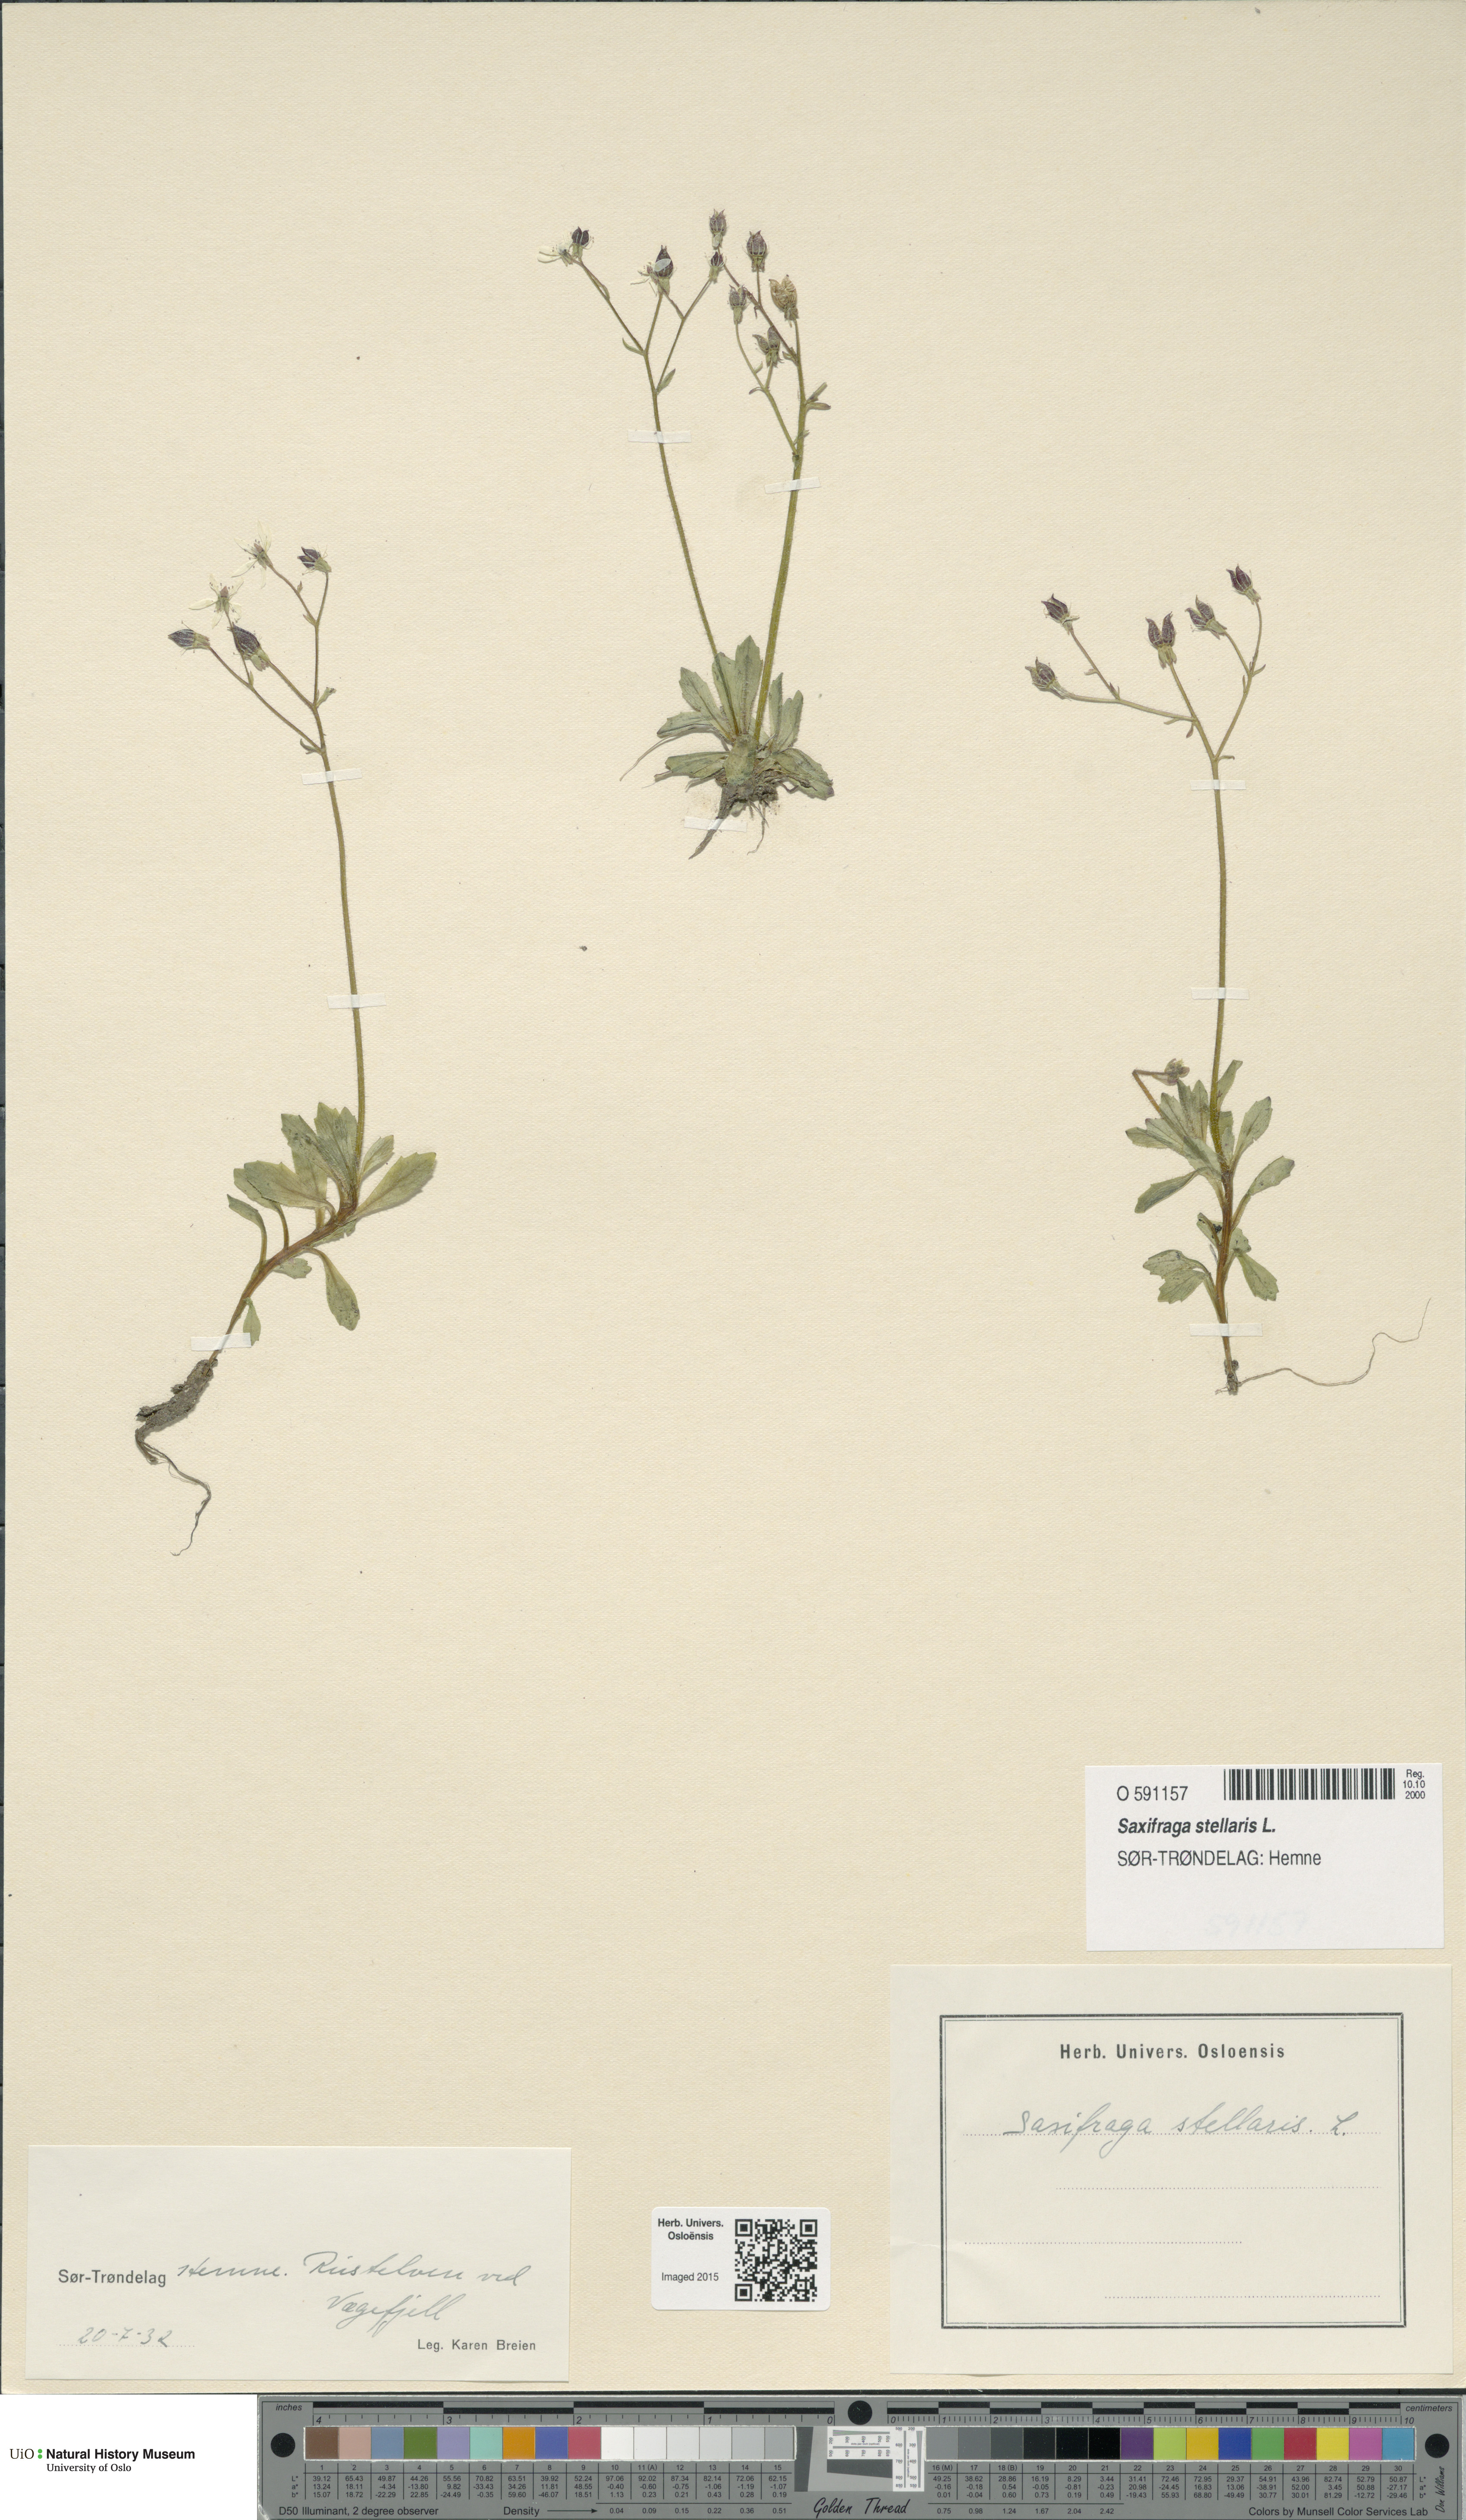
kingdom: Plantae
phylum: Tracheophyta
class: Magnoliopsida
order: Saxifragales
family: Saxifragaceae
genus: Micranthes
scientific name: Micranthes stellaris
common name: Starry saxifrage
